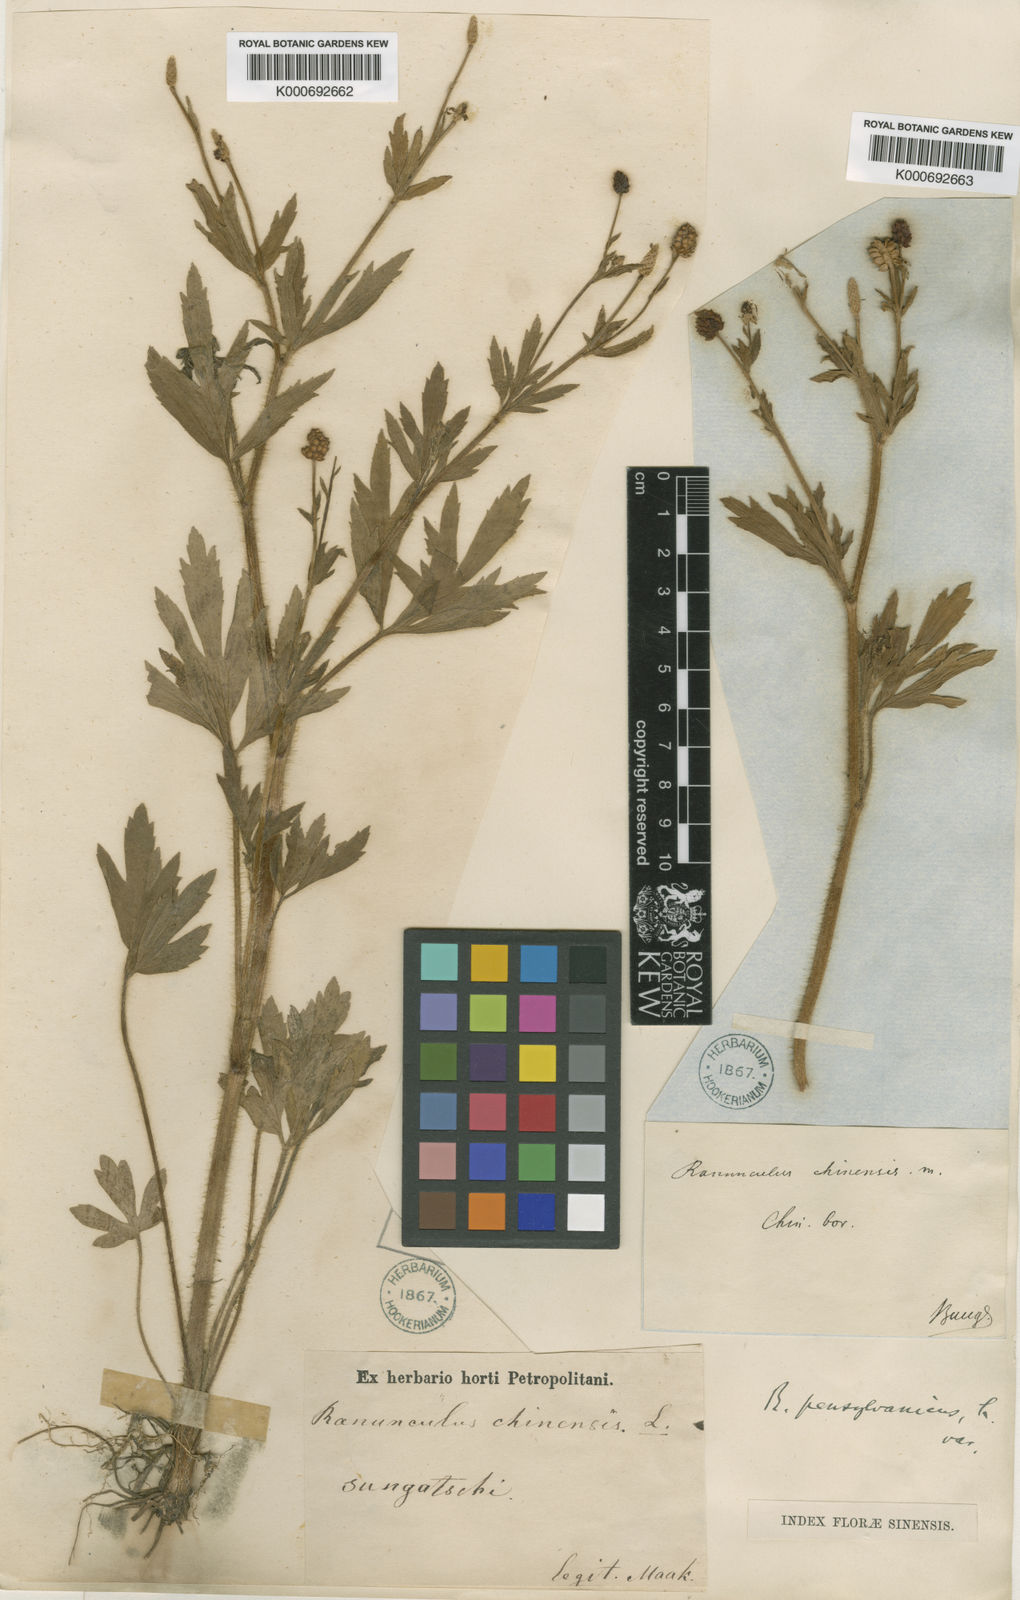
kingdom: Plantae
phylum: Tracheophyta
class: Magnoliopsida
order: Ranunculales
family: Ranunculaceae
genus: Ranunculus
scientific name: Ranunculus
